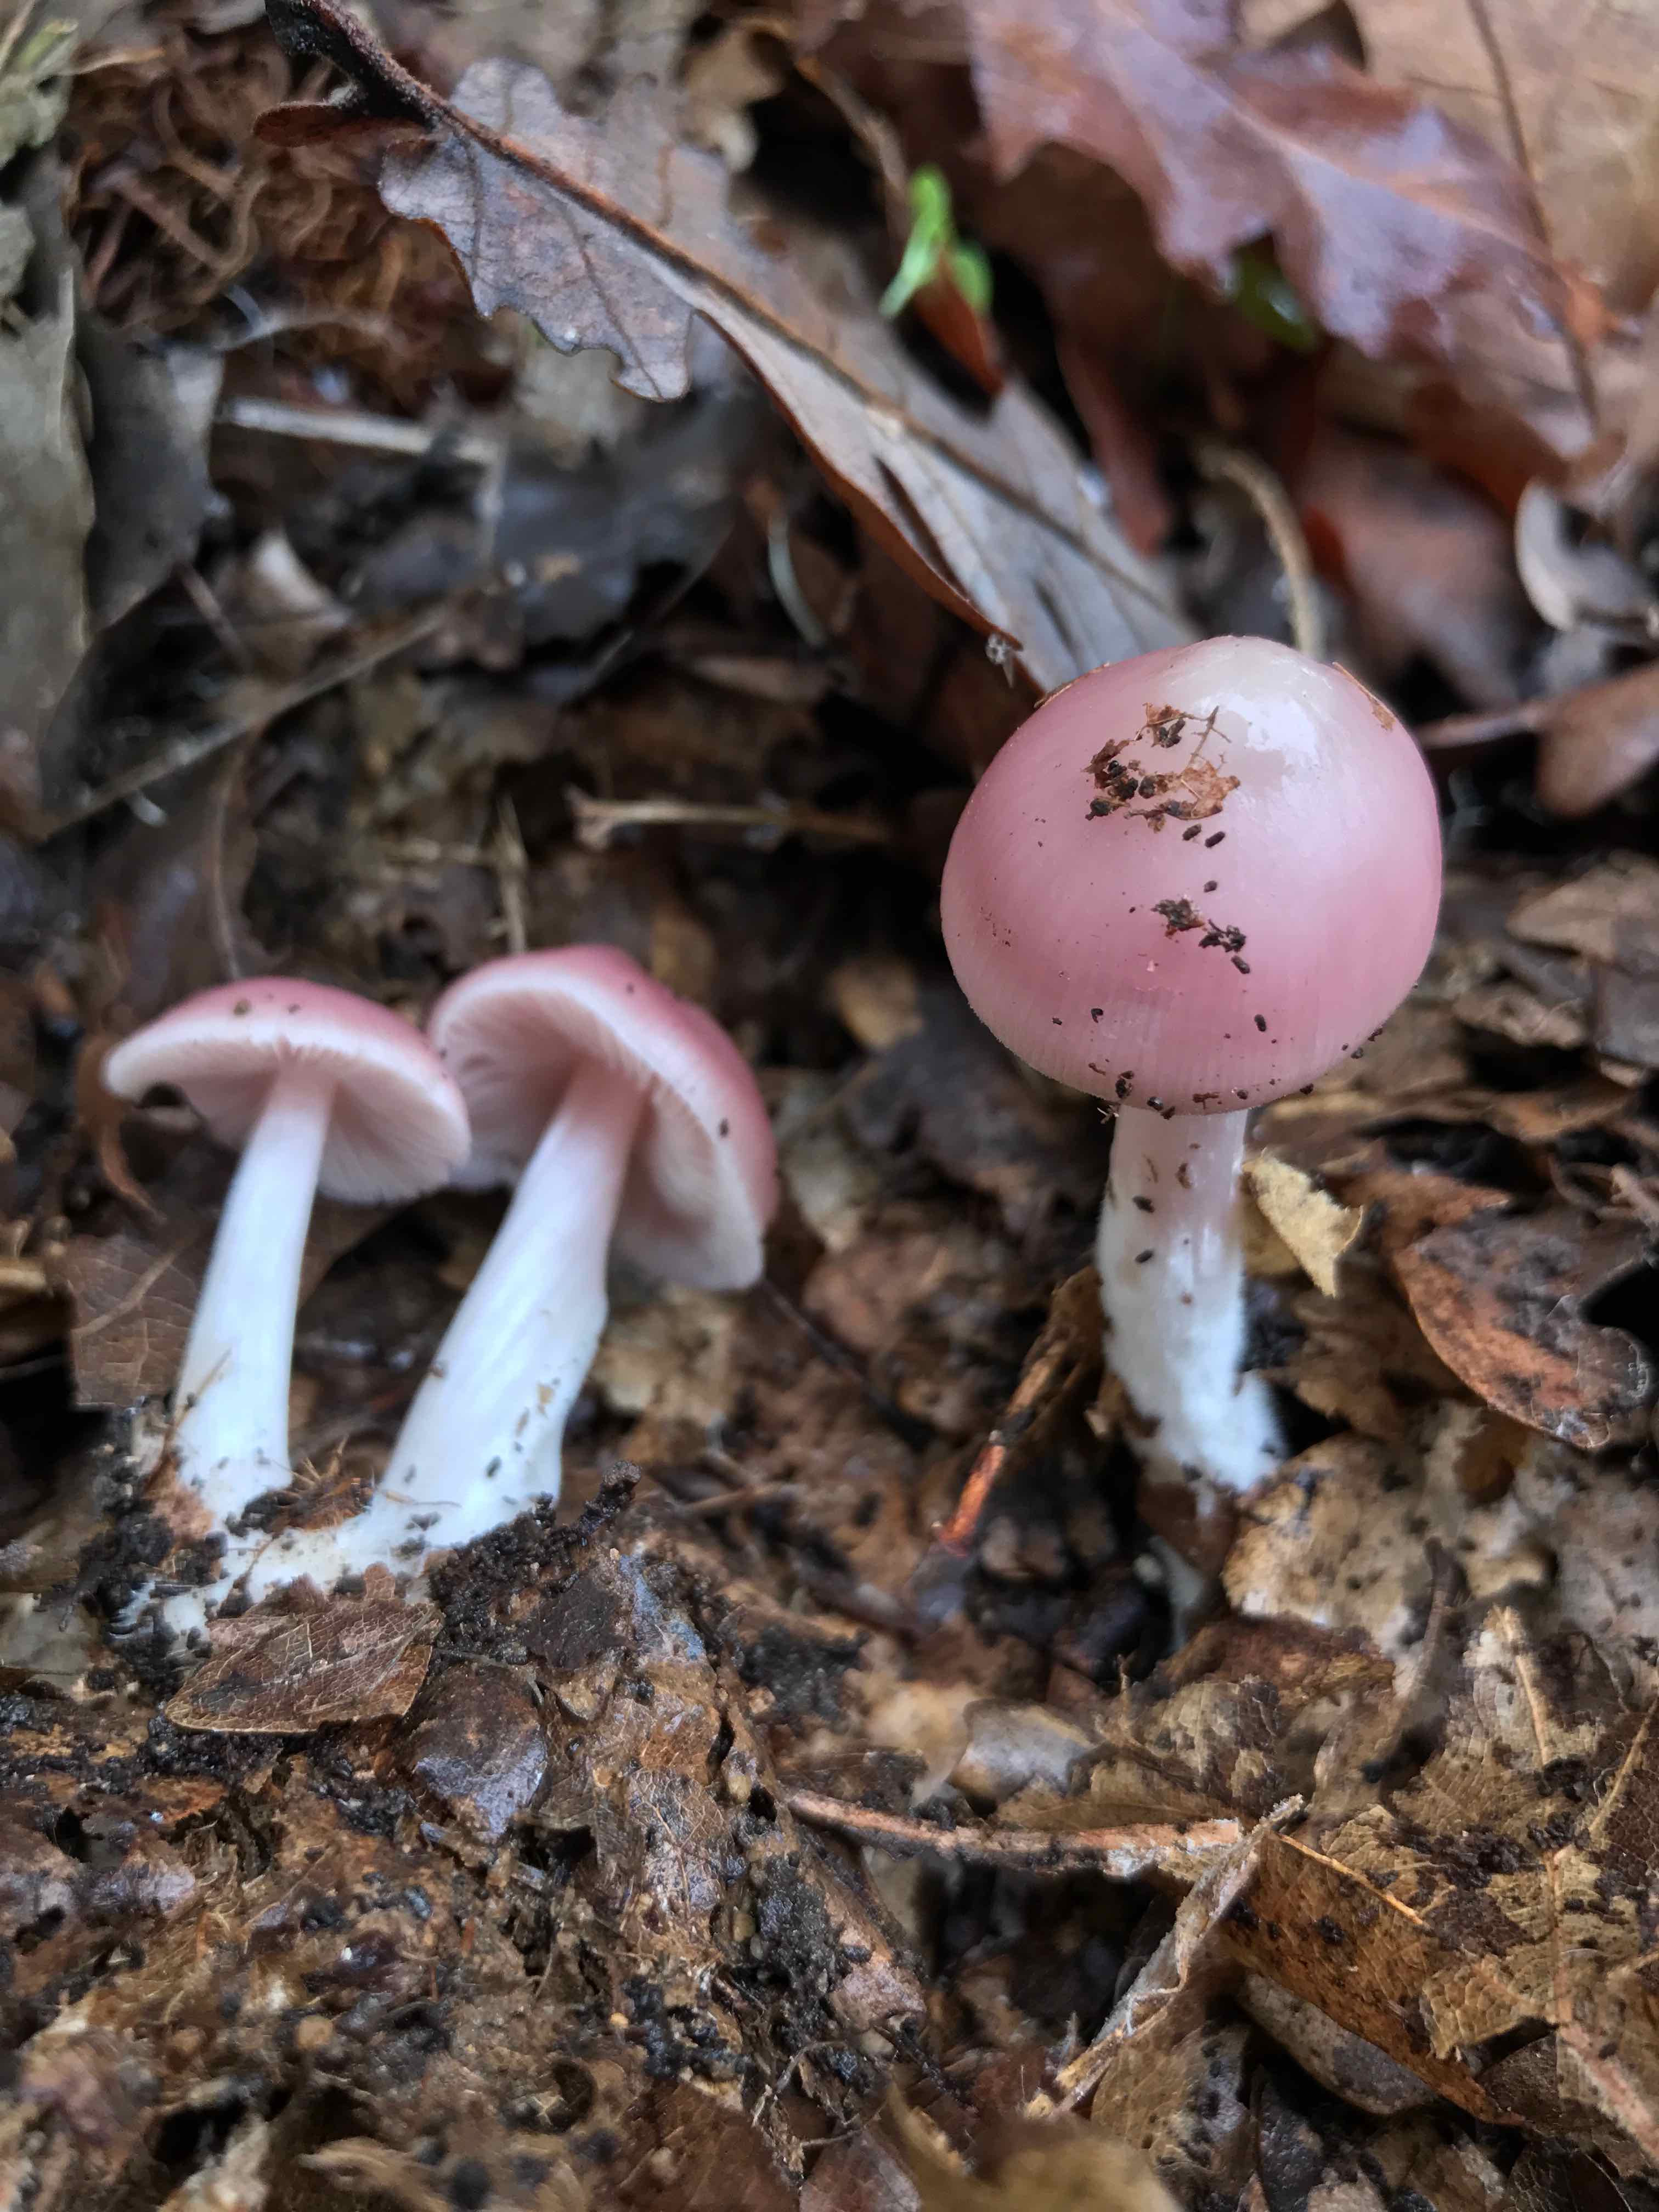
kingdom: Fungi
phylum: Basidiomycota
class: Agaricomycetes
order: Agaricales
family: Mycenaceae
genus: Mycena
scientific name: Mycena rosea
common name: rosa huesvamp
